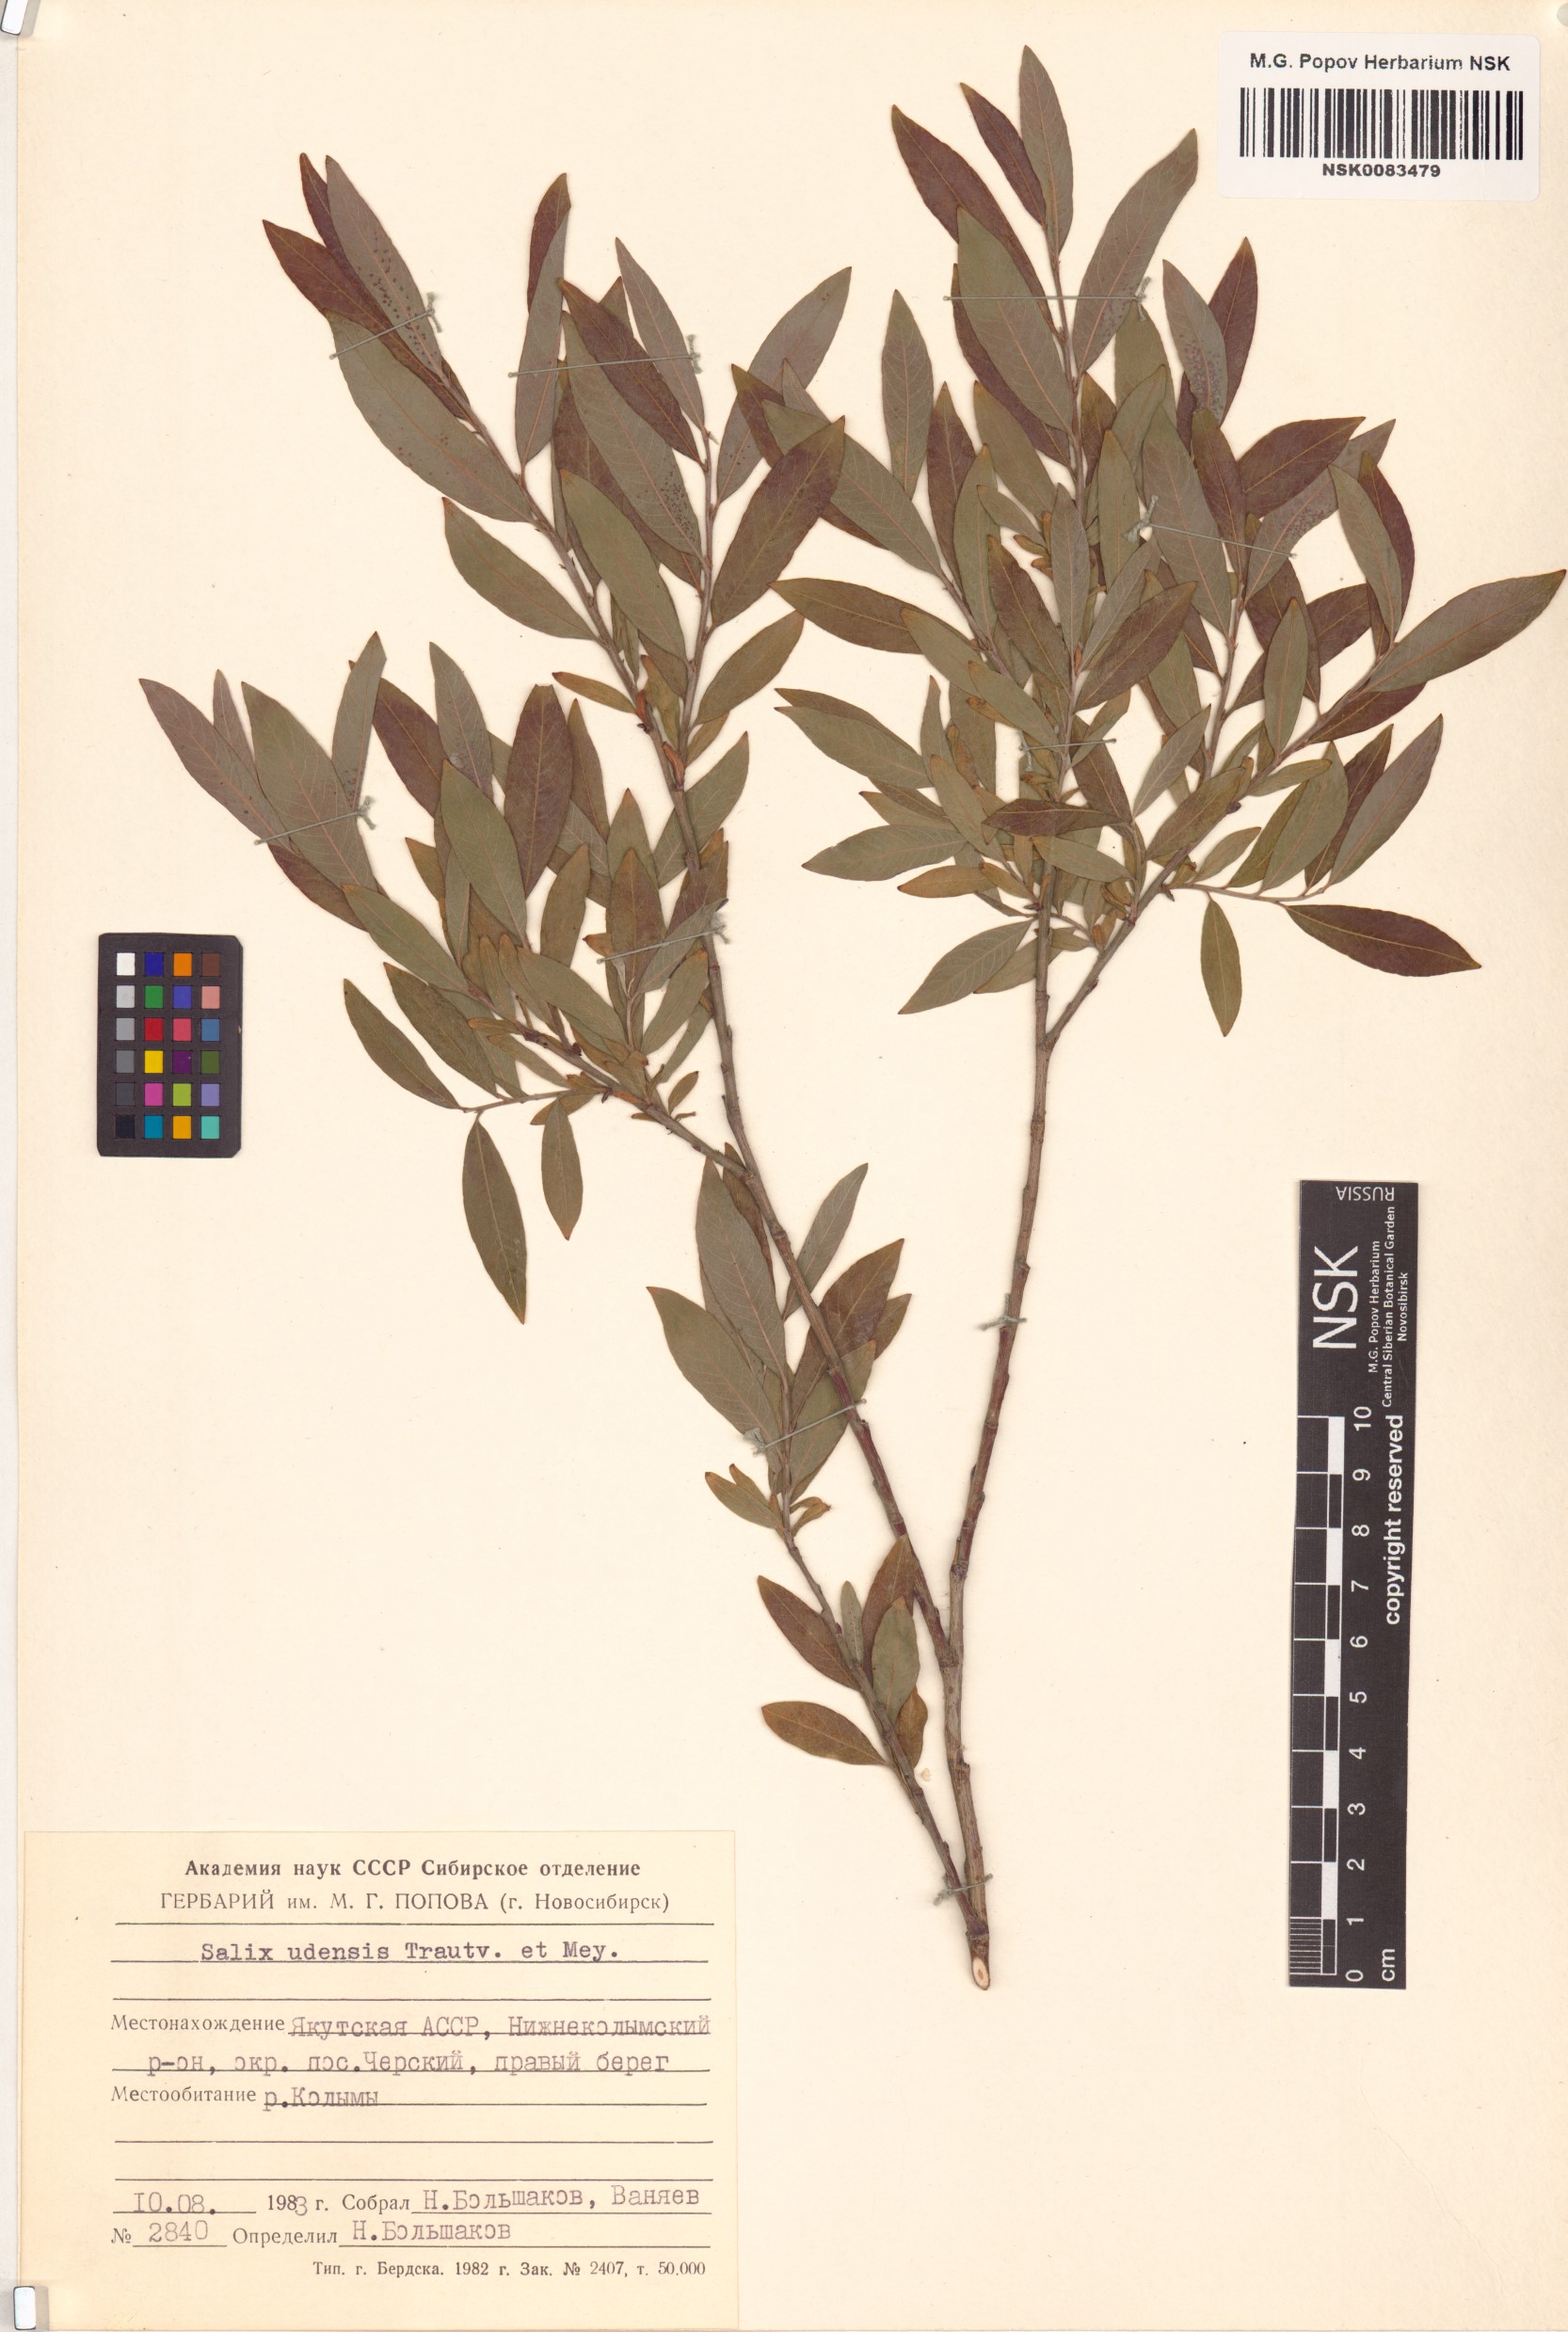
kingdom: Plantae
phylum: Tracheophyta
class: Magnoliopsida
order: Malpighiales
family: Salicaceae
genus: Salix
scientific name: Salix udensis
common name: Sachalin willow
